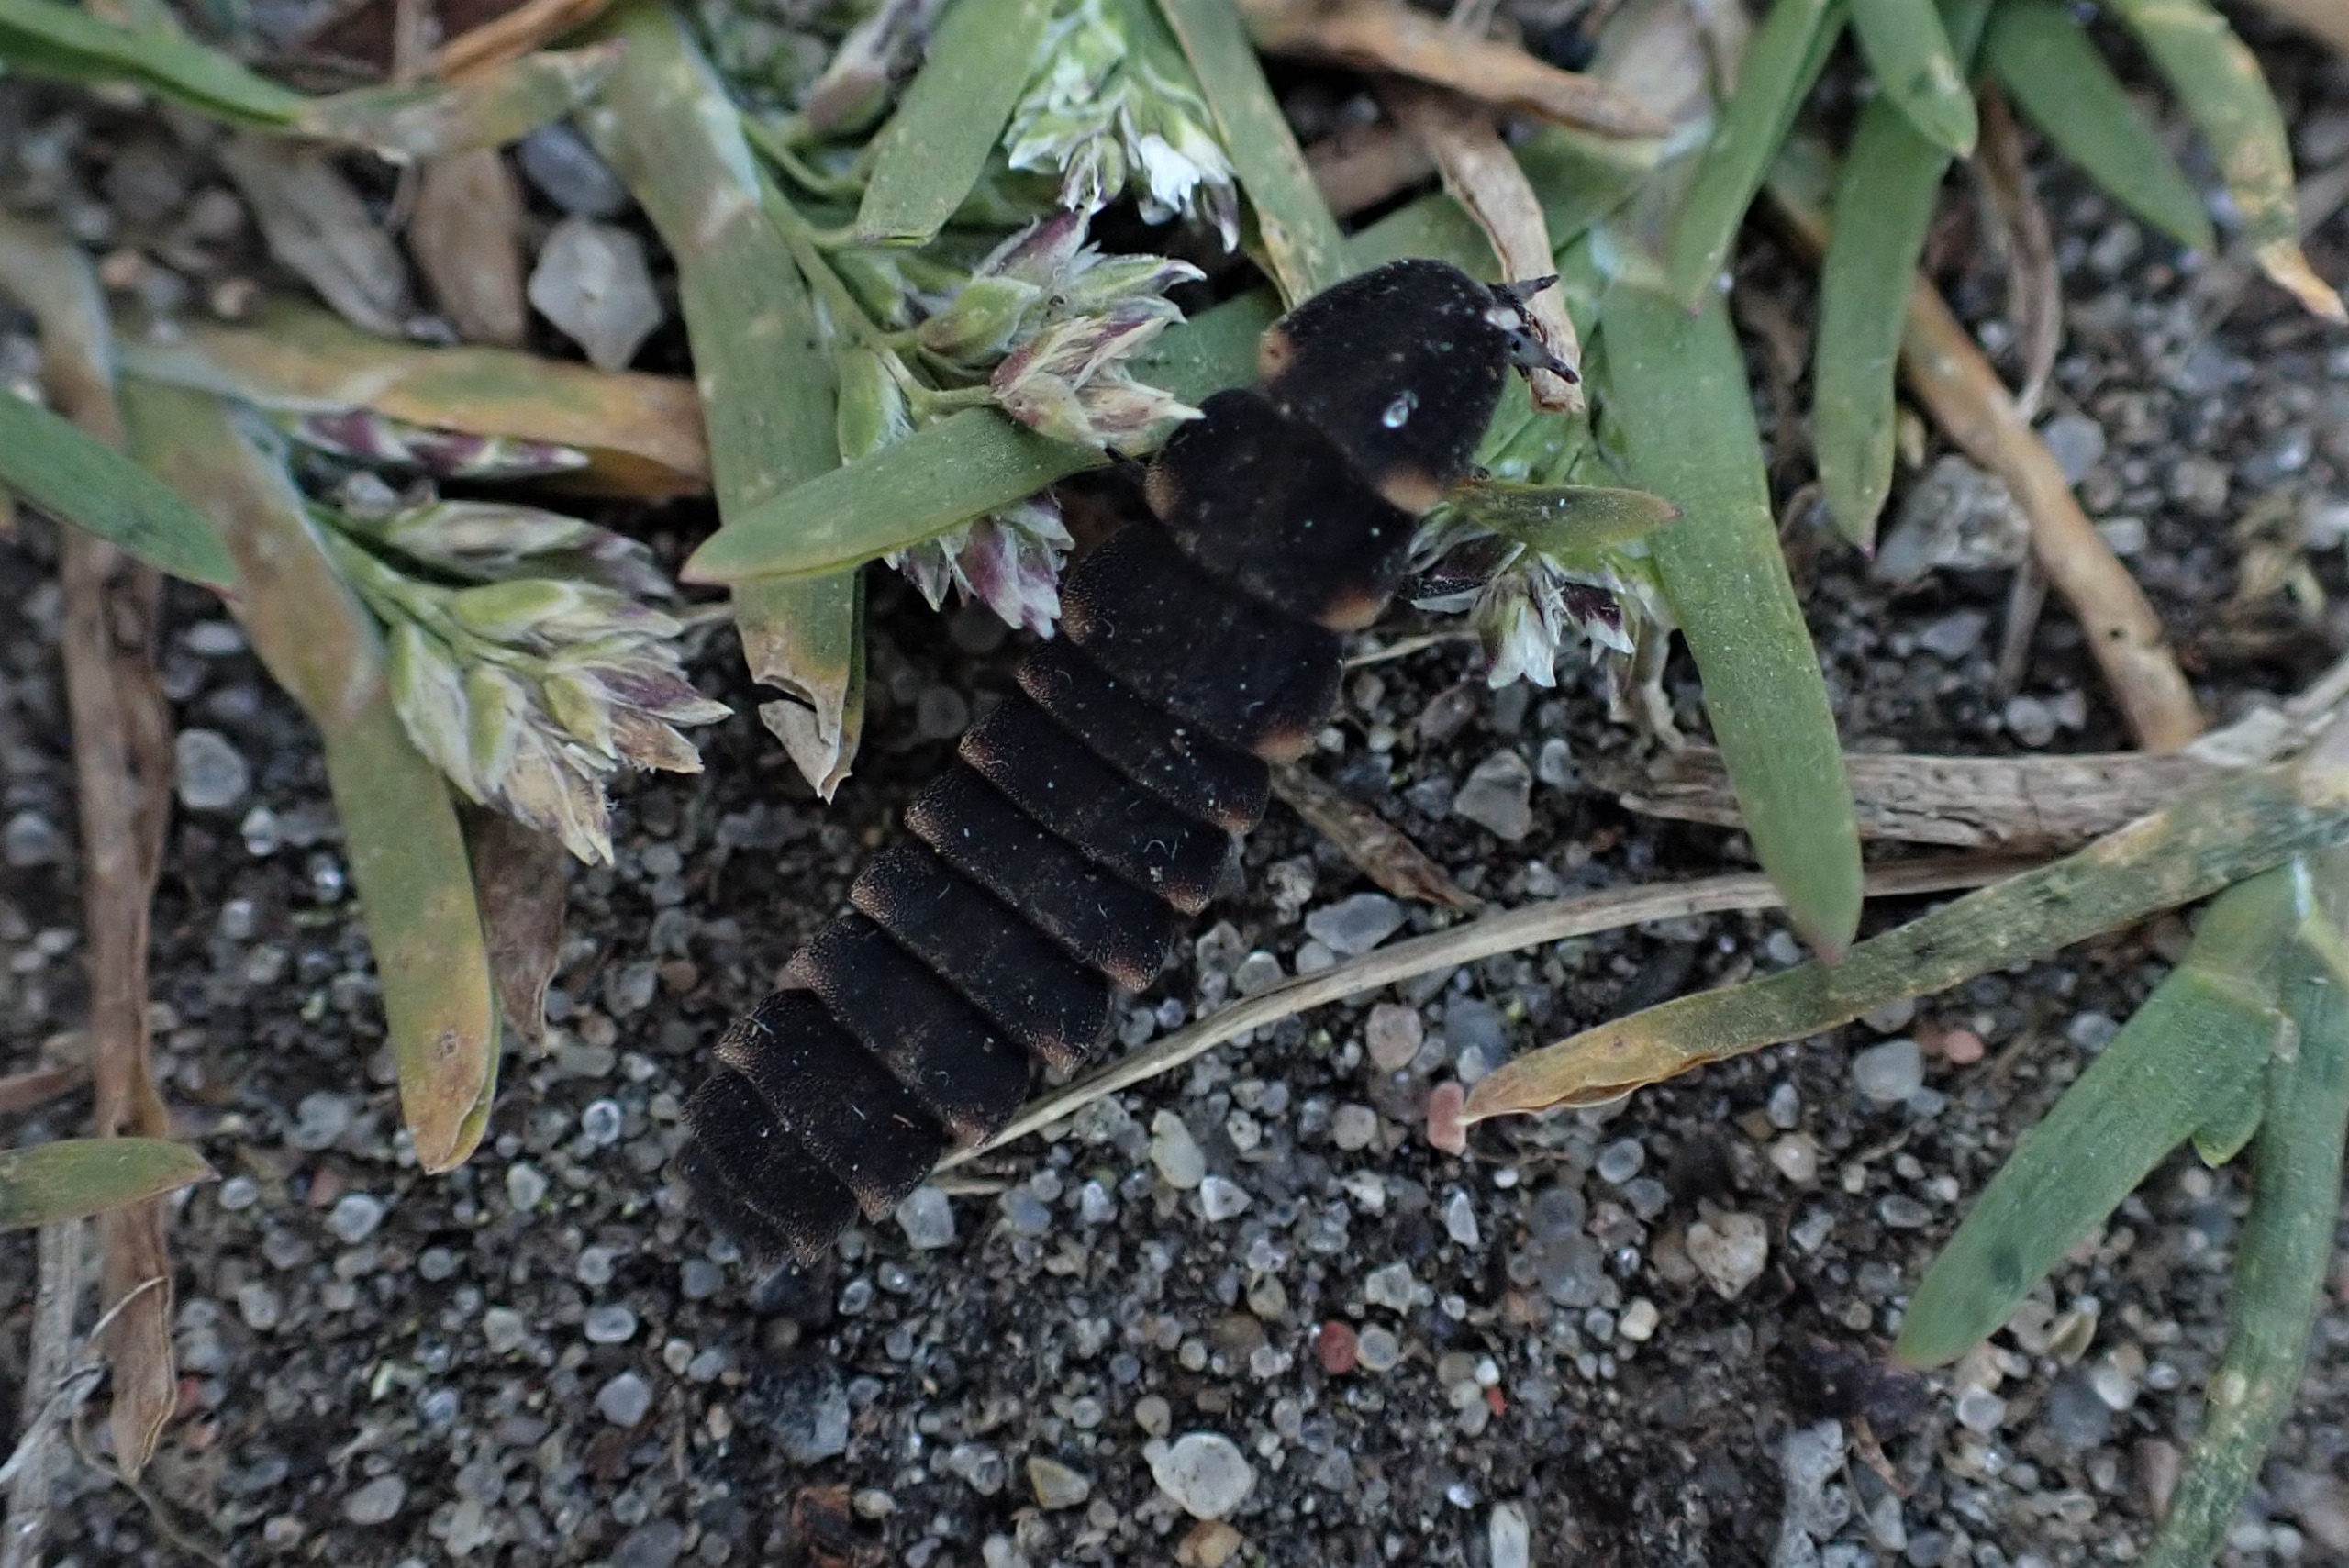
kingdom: Animalia
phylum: Arthropoda
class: Insecta
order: Coleoptera
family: Lampyridae
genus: Lampyris
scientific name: Lampyris noctiluca
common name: Sankthansorm
